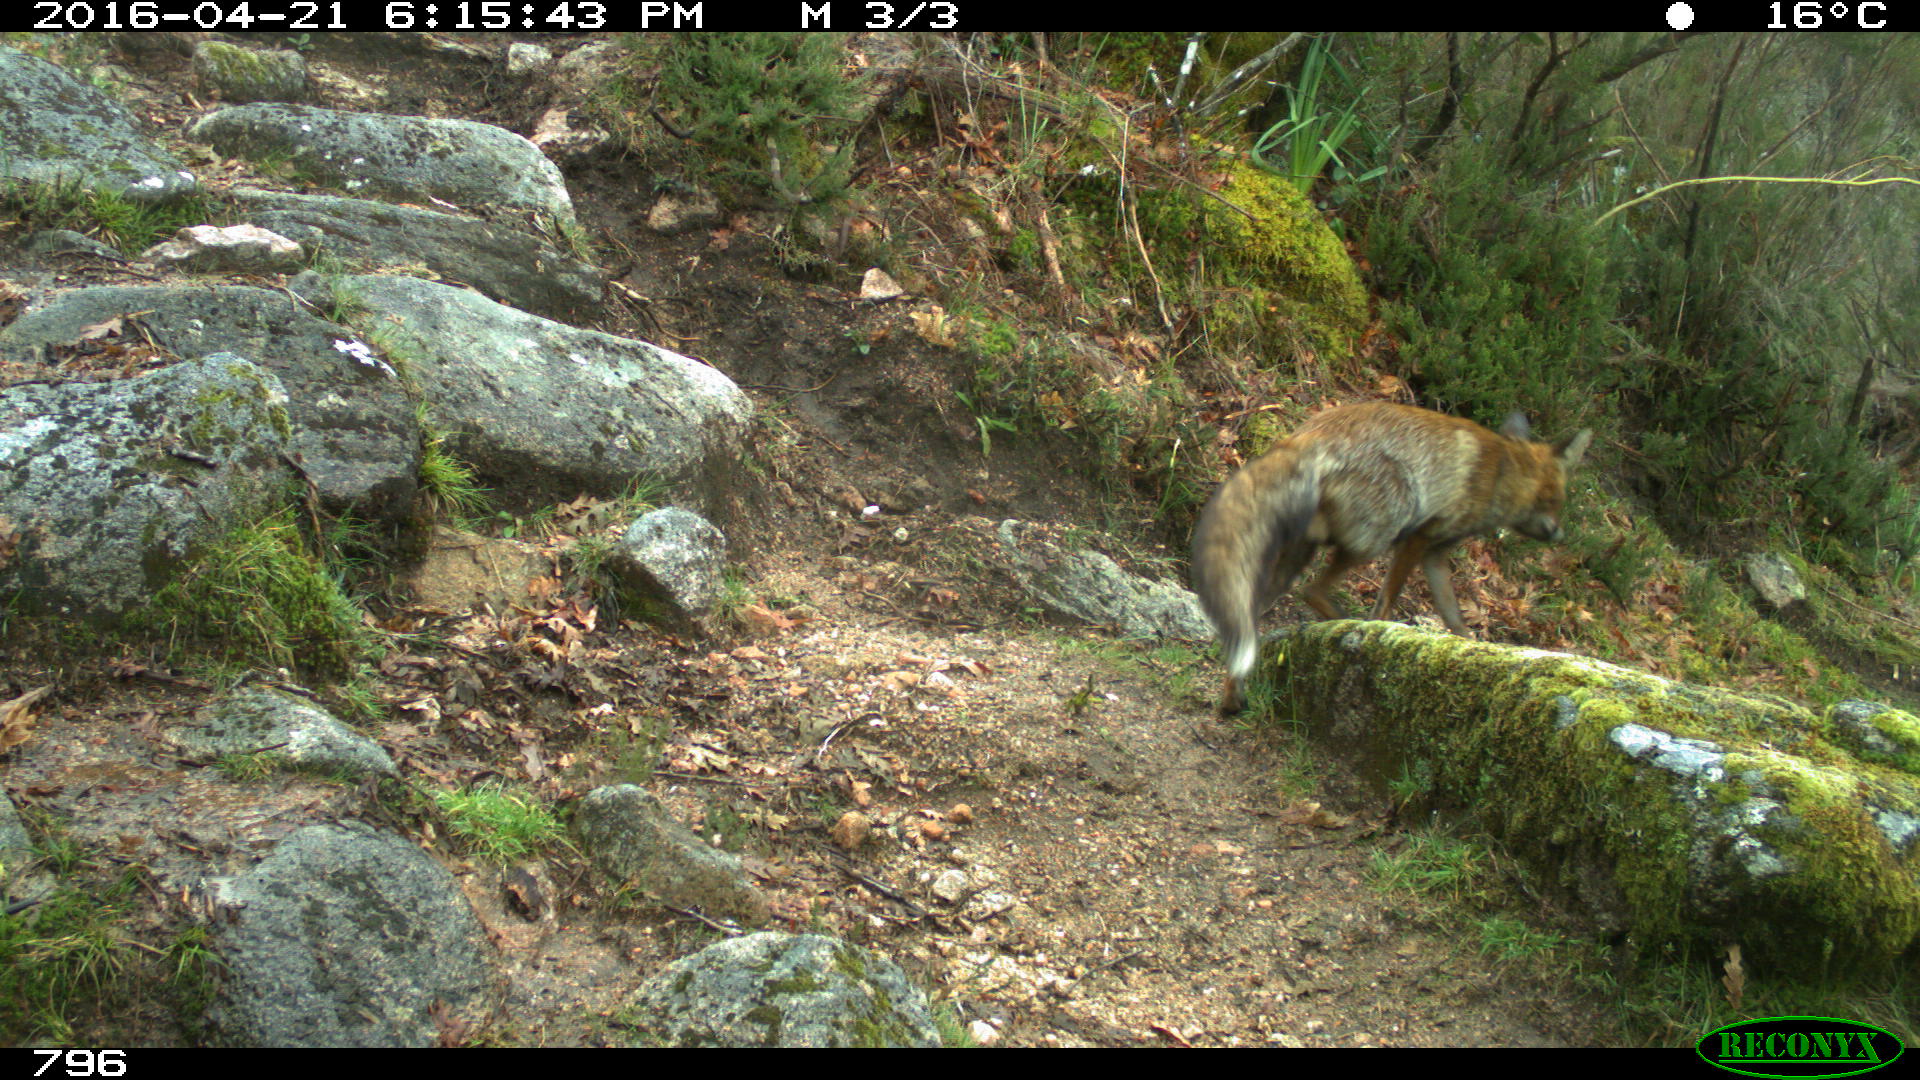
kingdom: Animalia
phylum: Chordata
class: Mammalia
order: Carnivora
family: Canidae
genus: Vulpes
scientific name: Vulpes vulpes
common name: Red fox
